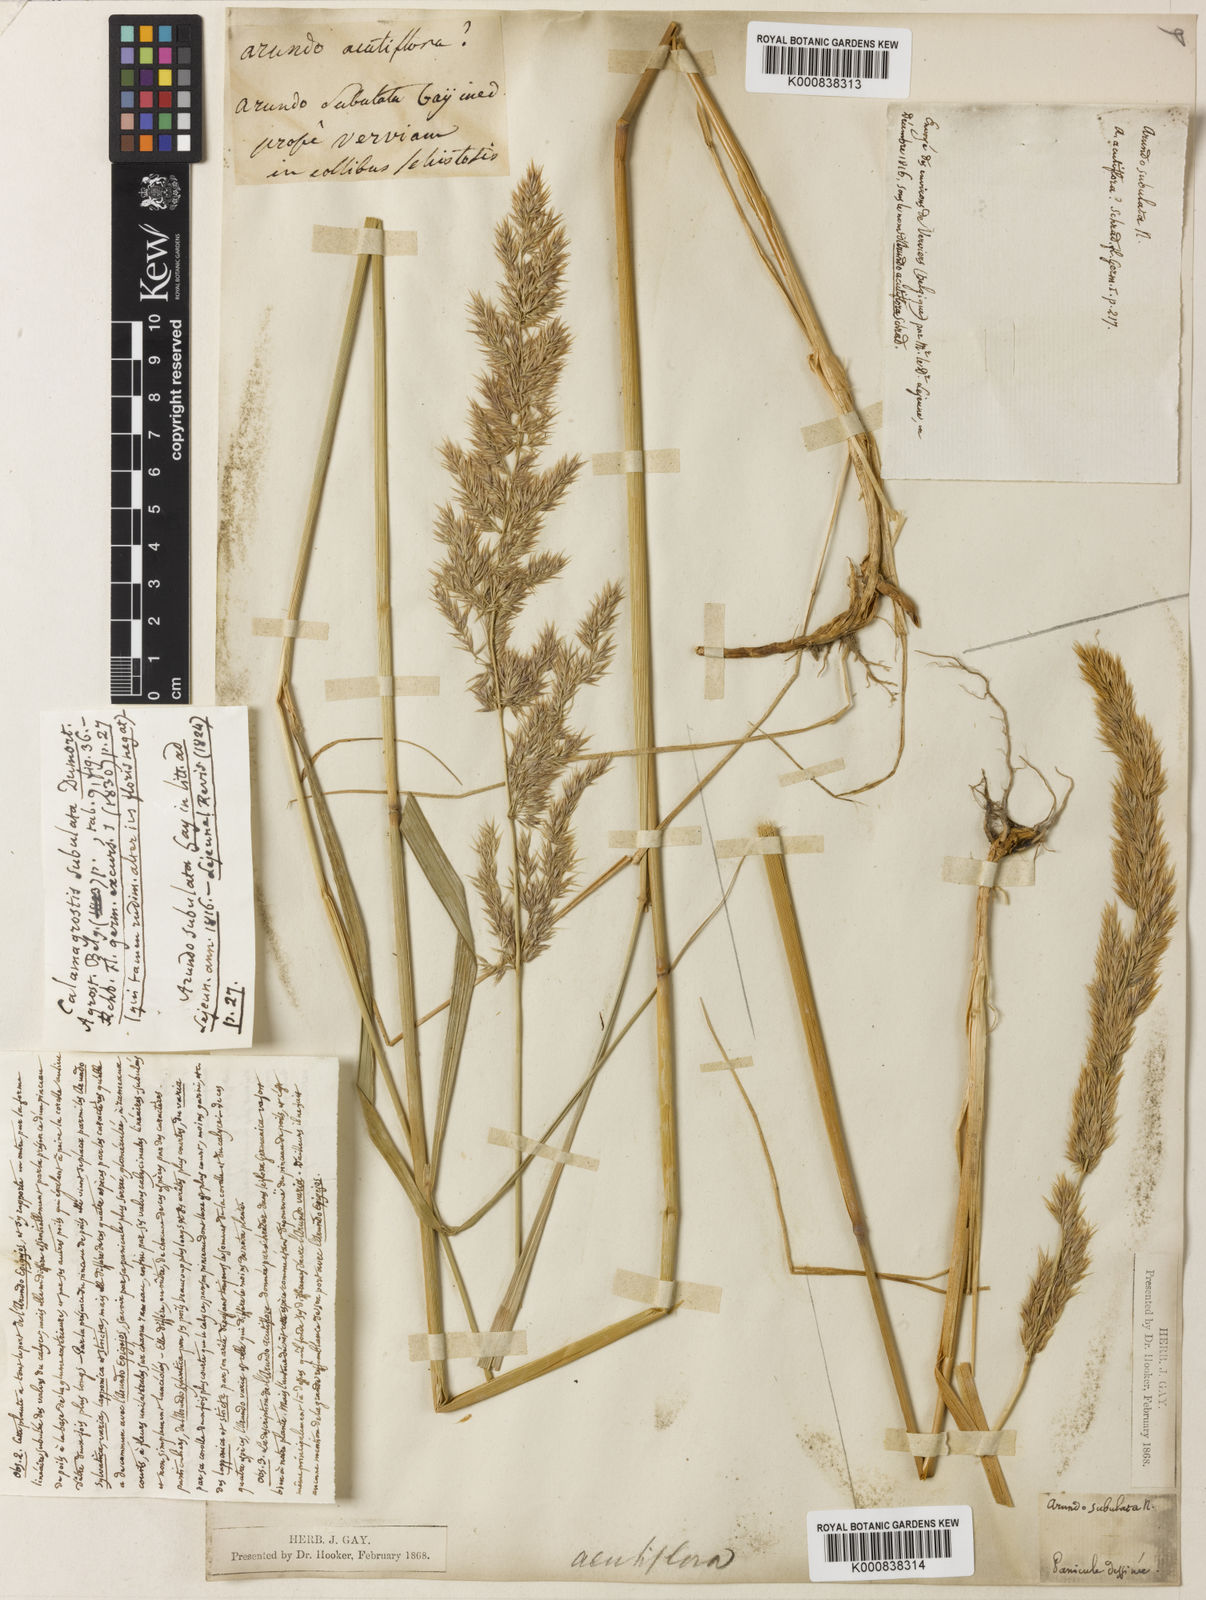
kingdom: Plantae
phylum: Tracheophyta
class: Liliopsida
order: Poales
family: Poaceae
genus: Calamagrostis
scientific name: Calamagrostis arundinacea
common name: Metskastik
